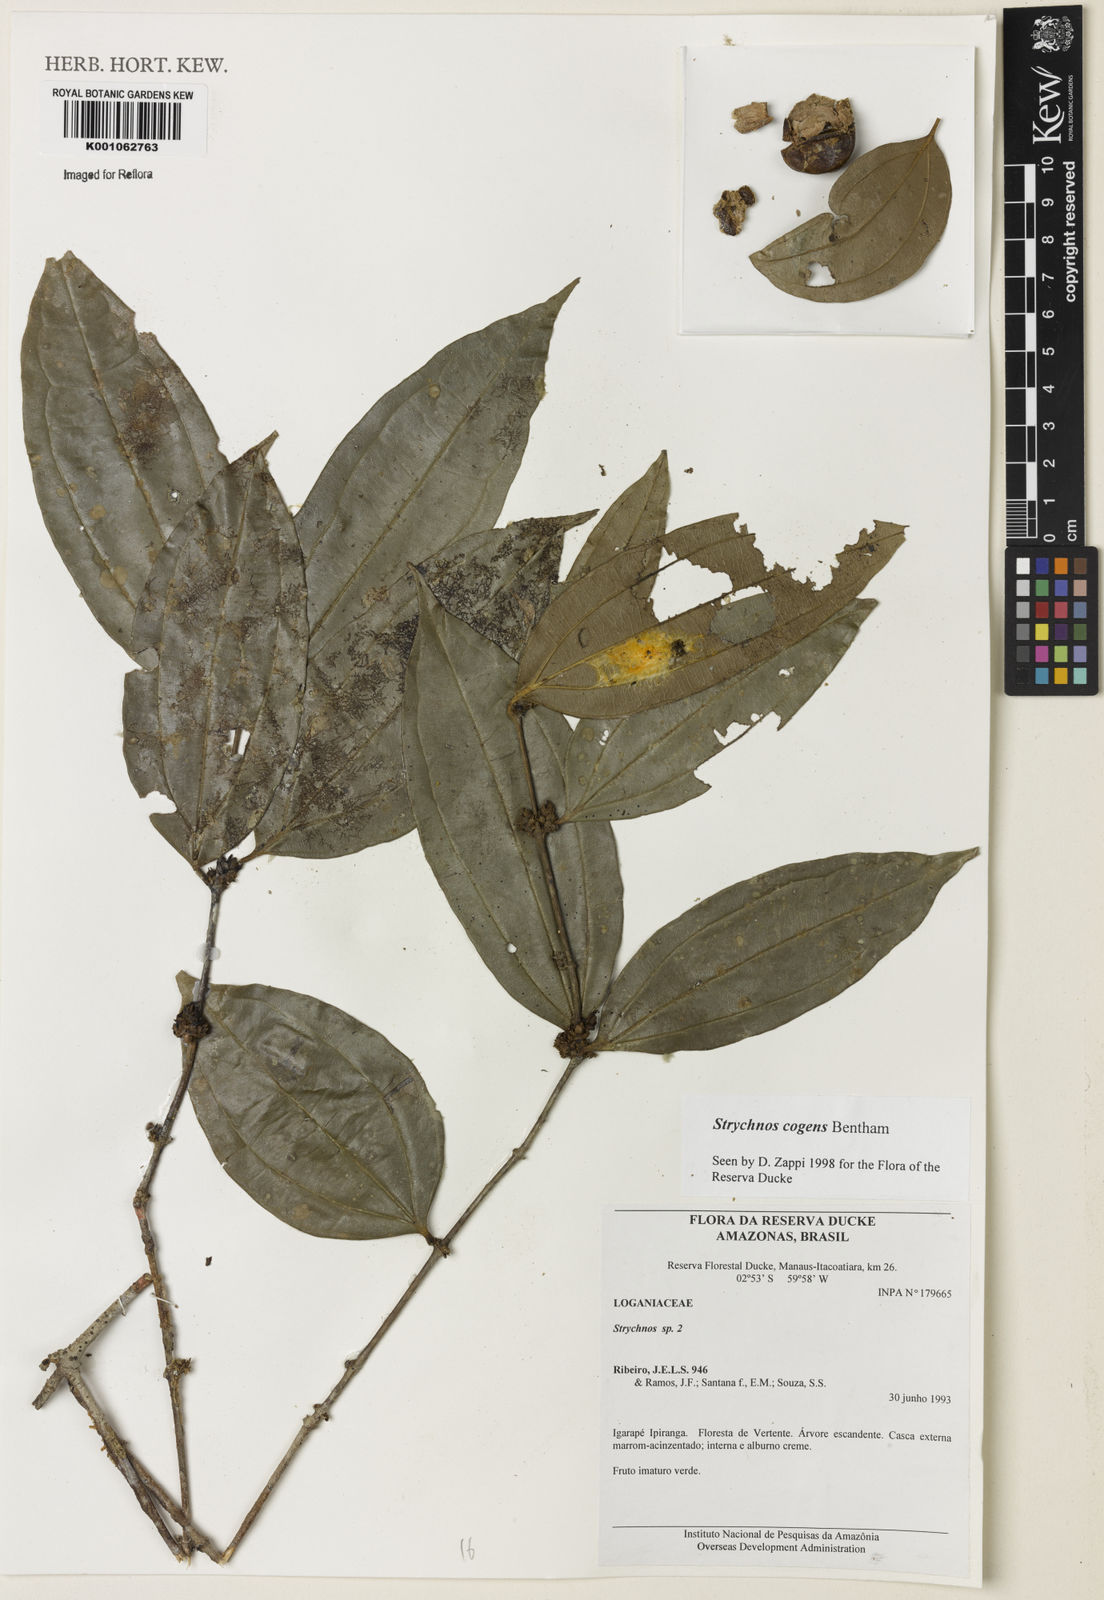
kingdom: Plantae
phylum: Tracheophyta
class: Magnoliopsida
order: Gentianales
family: Loganiaceae
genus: Strychnos
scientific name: Strychnos cogens
